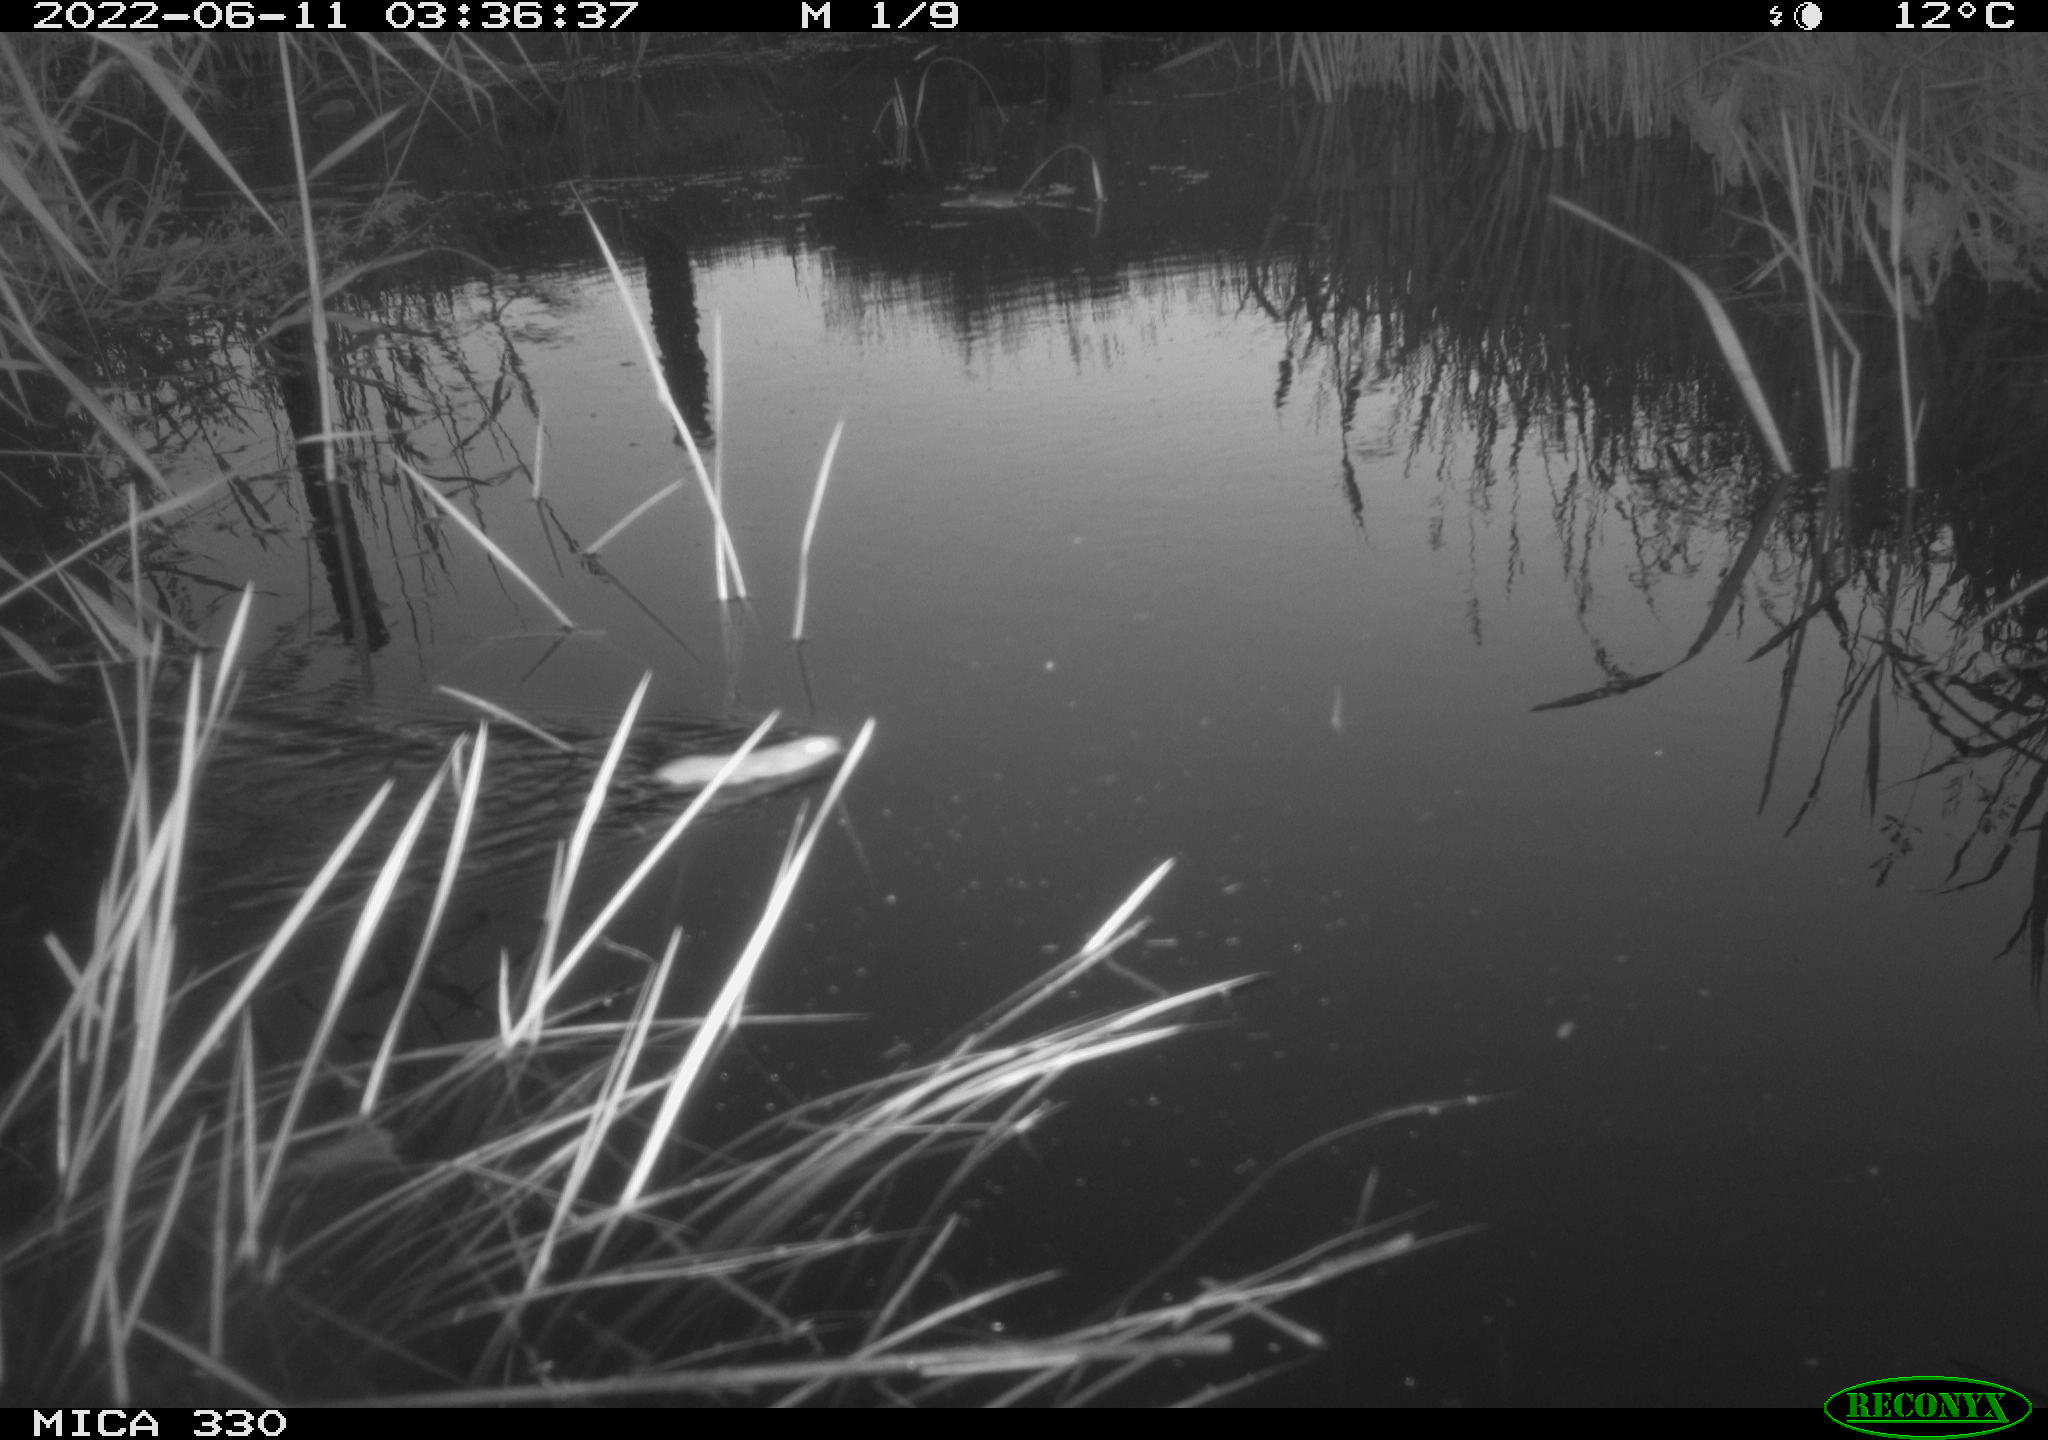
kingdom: Animalia
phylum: Chordata
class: Mammalia
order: Rodentia
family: Muridae
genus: Rattus
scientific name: Rattus norvegicus
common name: Brown rat
